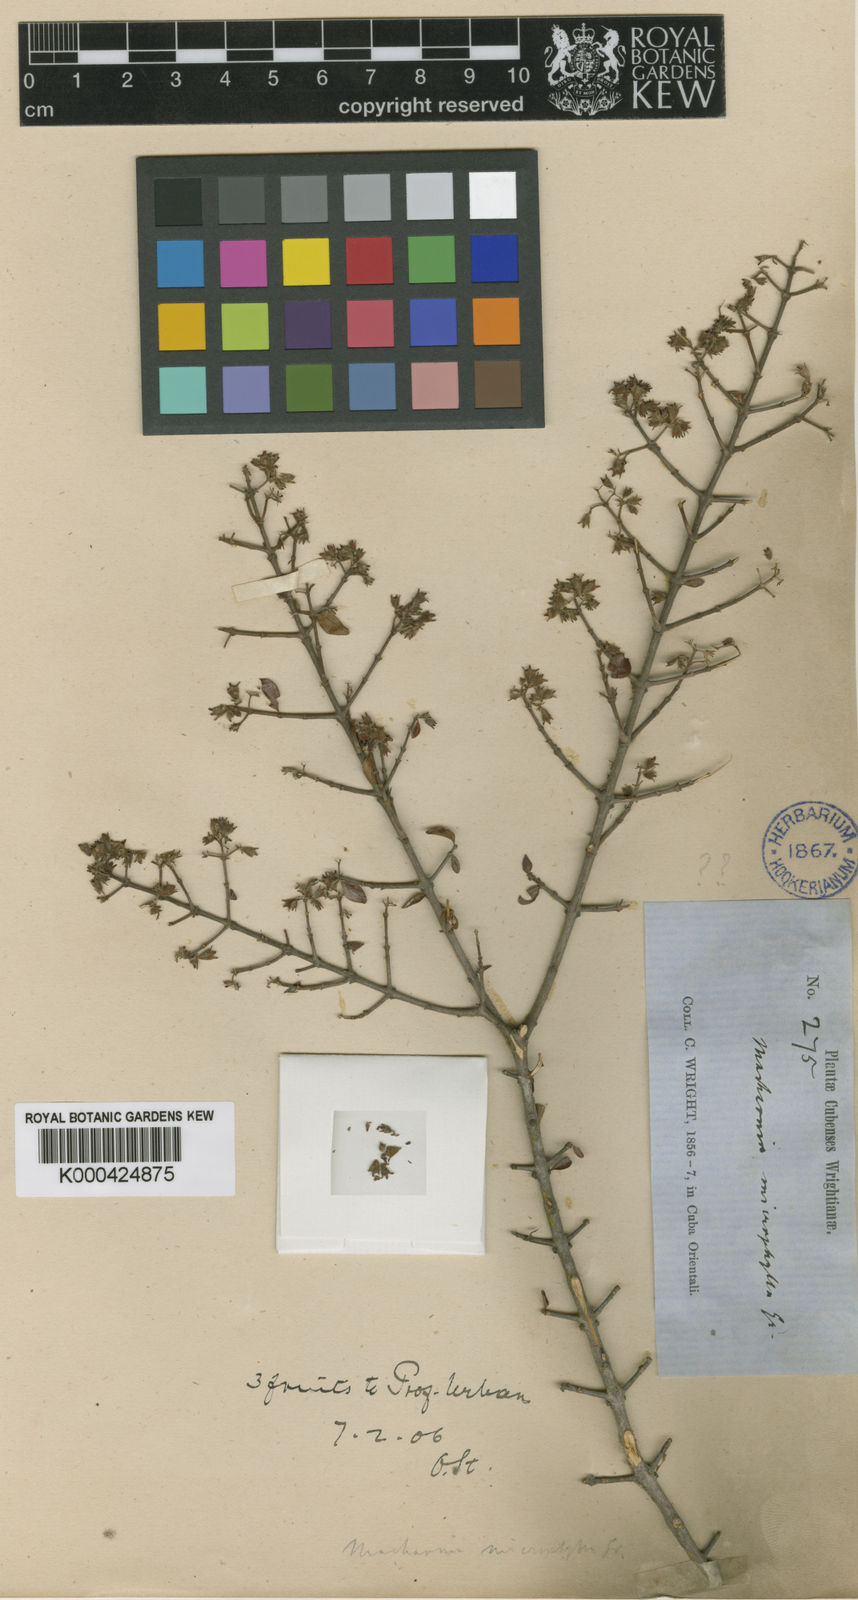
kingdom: Plantae
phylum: Tracheophyta
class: Magnoliopsida
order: Gentianales
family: Rubiaceae
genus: Machaonia
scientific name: Machaonia microphylla
